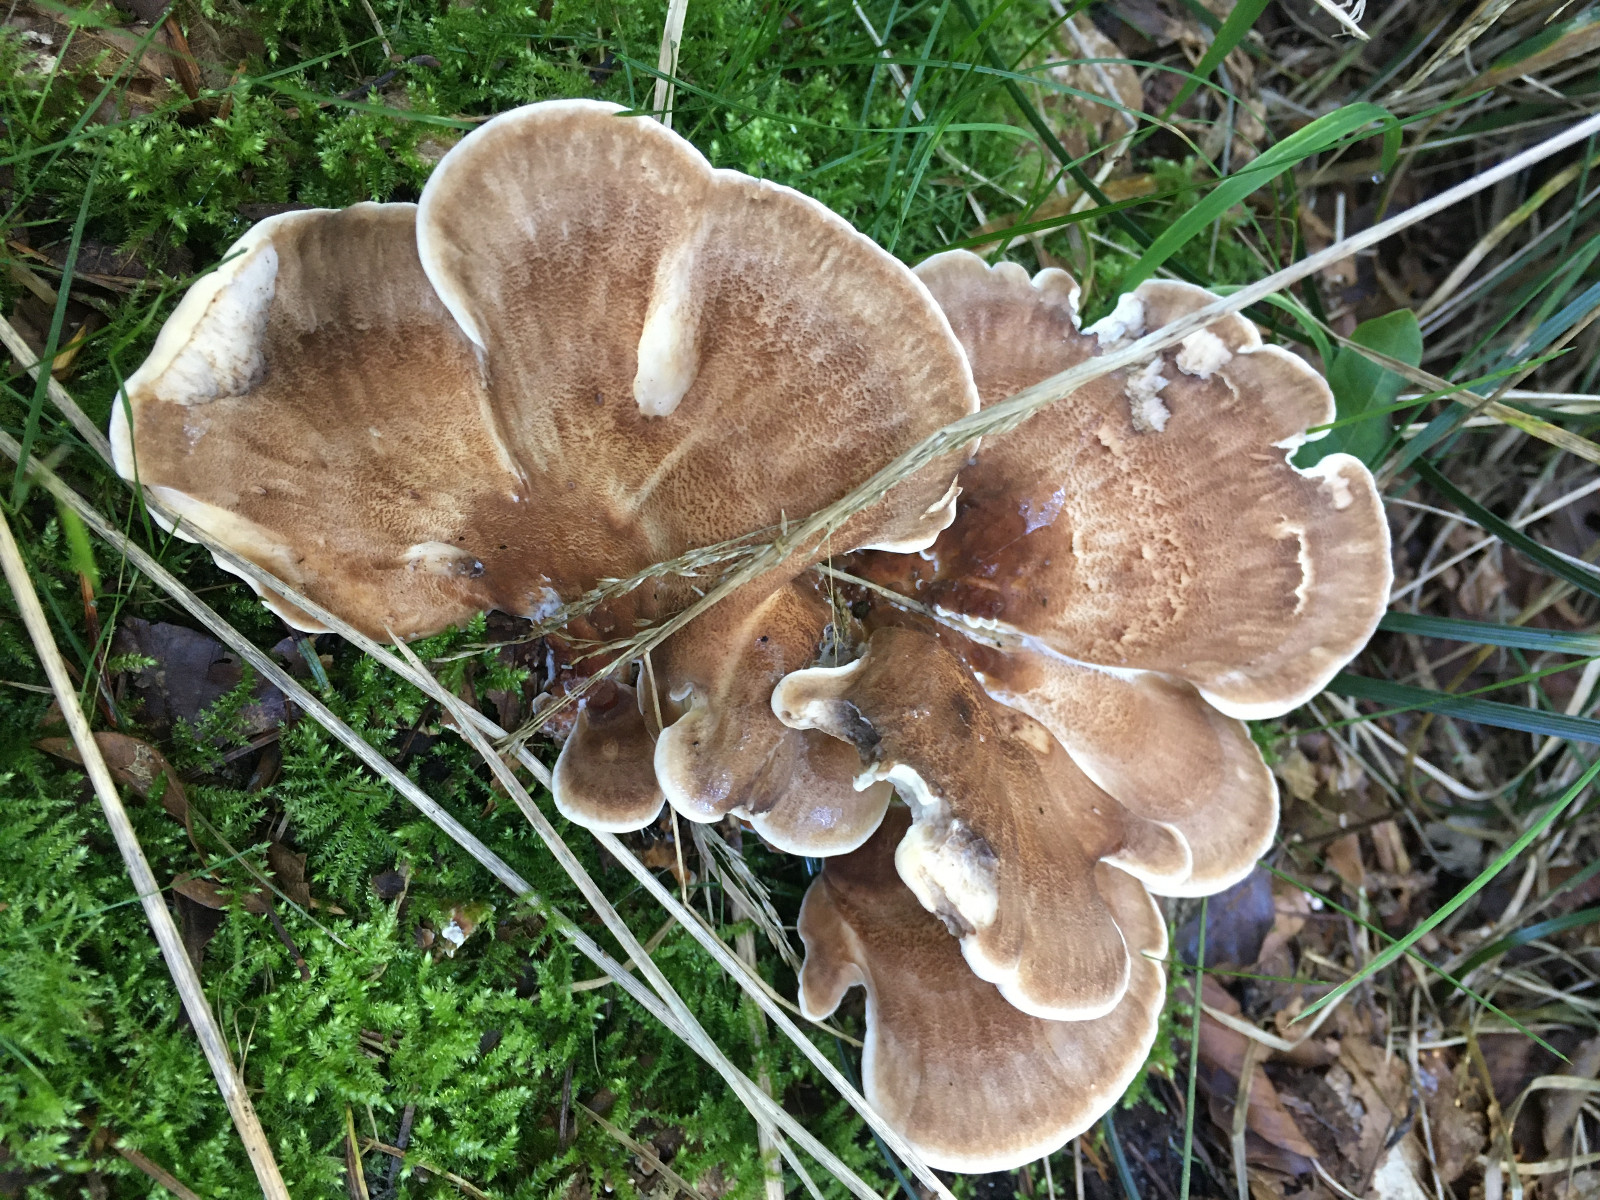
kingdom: Fungi
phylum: Basidiomycota
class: Agaricomycetes
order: Polyporales
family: Meripilaceae
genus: Meripilus
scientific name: Meripilus giganteus
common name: kæmpeporesvamp
